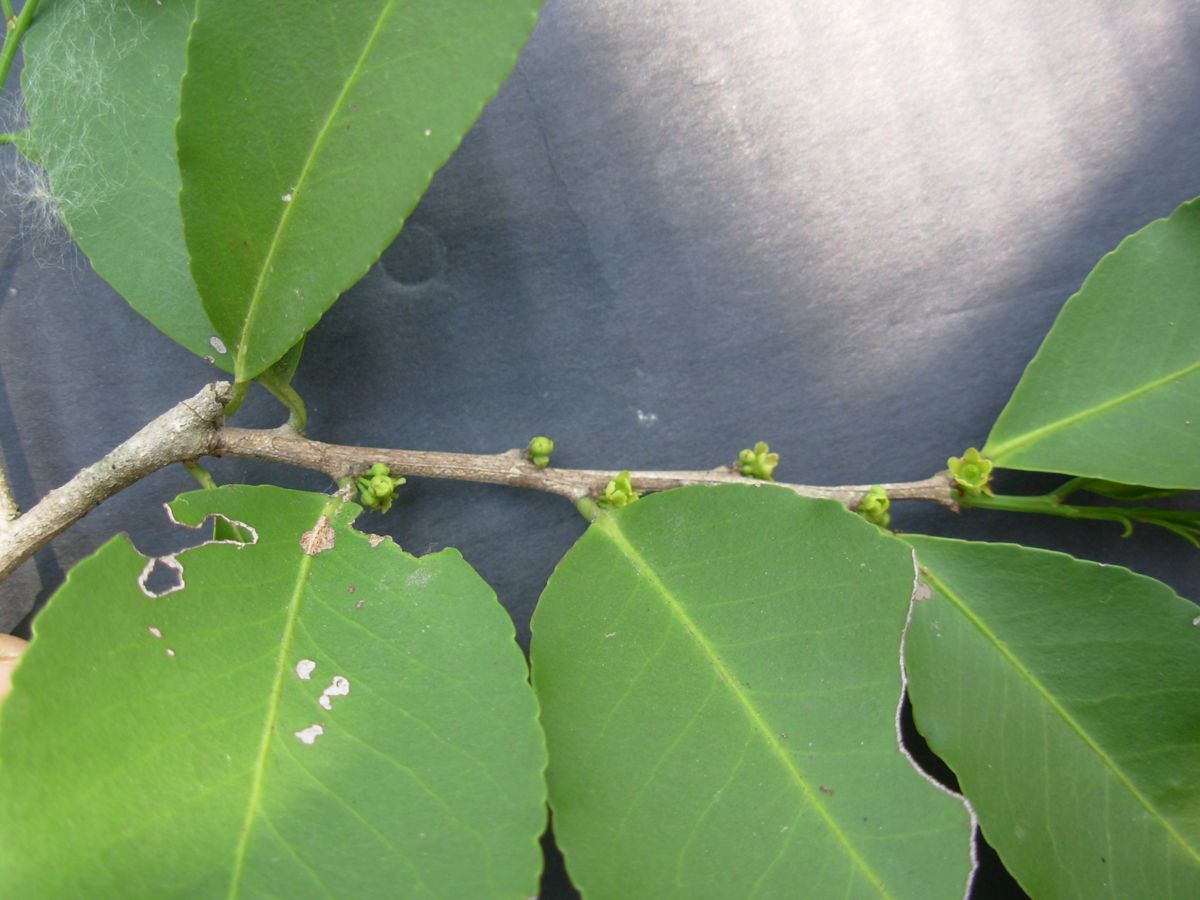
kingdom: Plantae
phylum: Tracheophyta
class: Magnoliopsida
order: Celastrales
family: Celastraceae
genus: Monteverdia
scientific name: Monteverdia segoviarum
